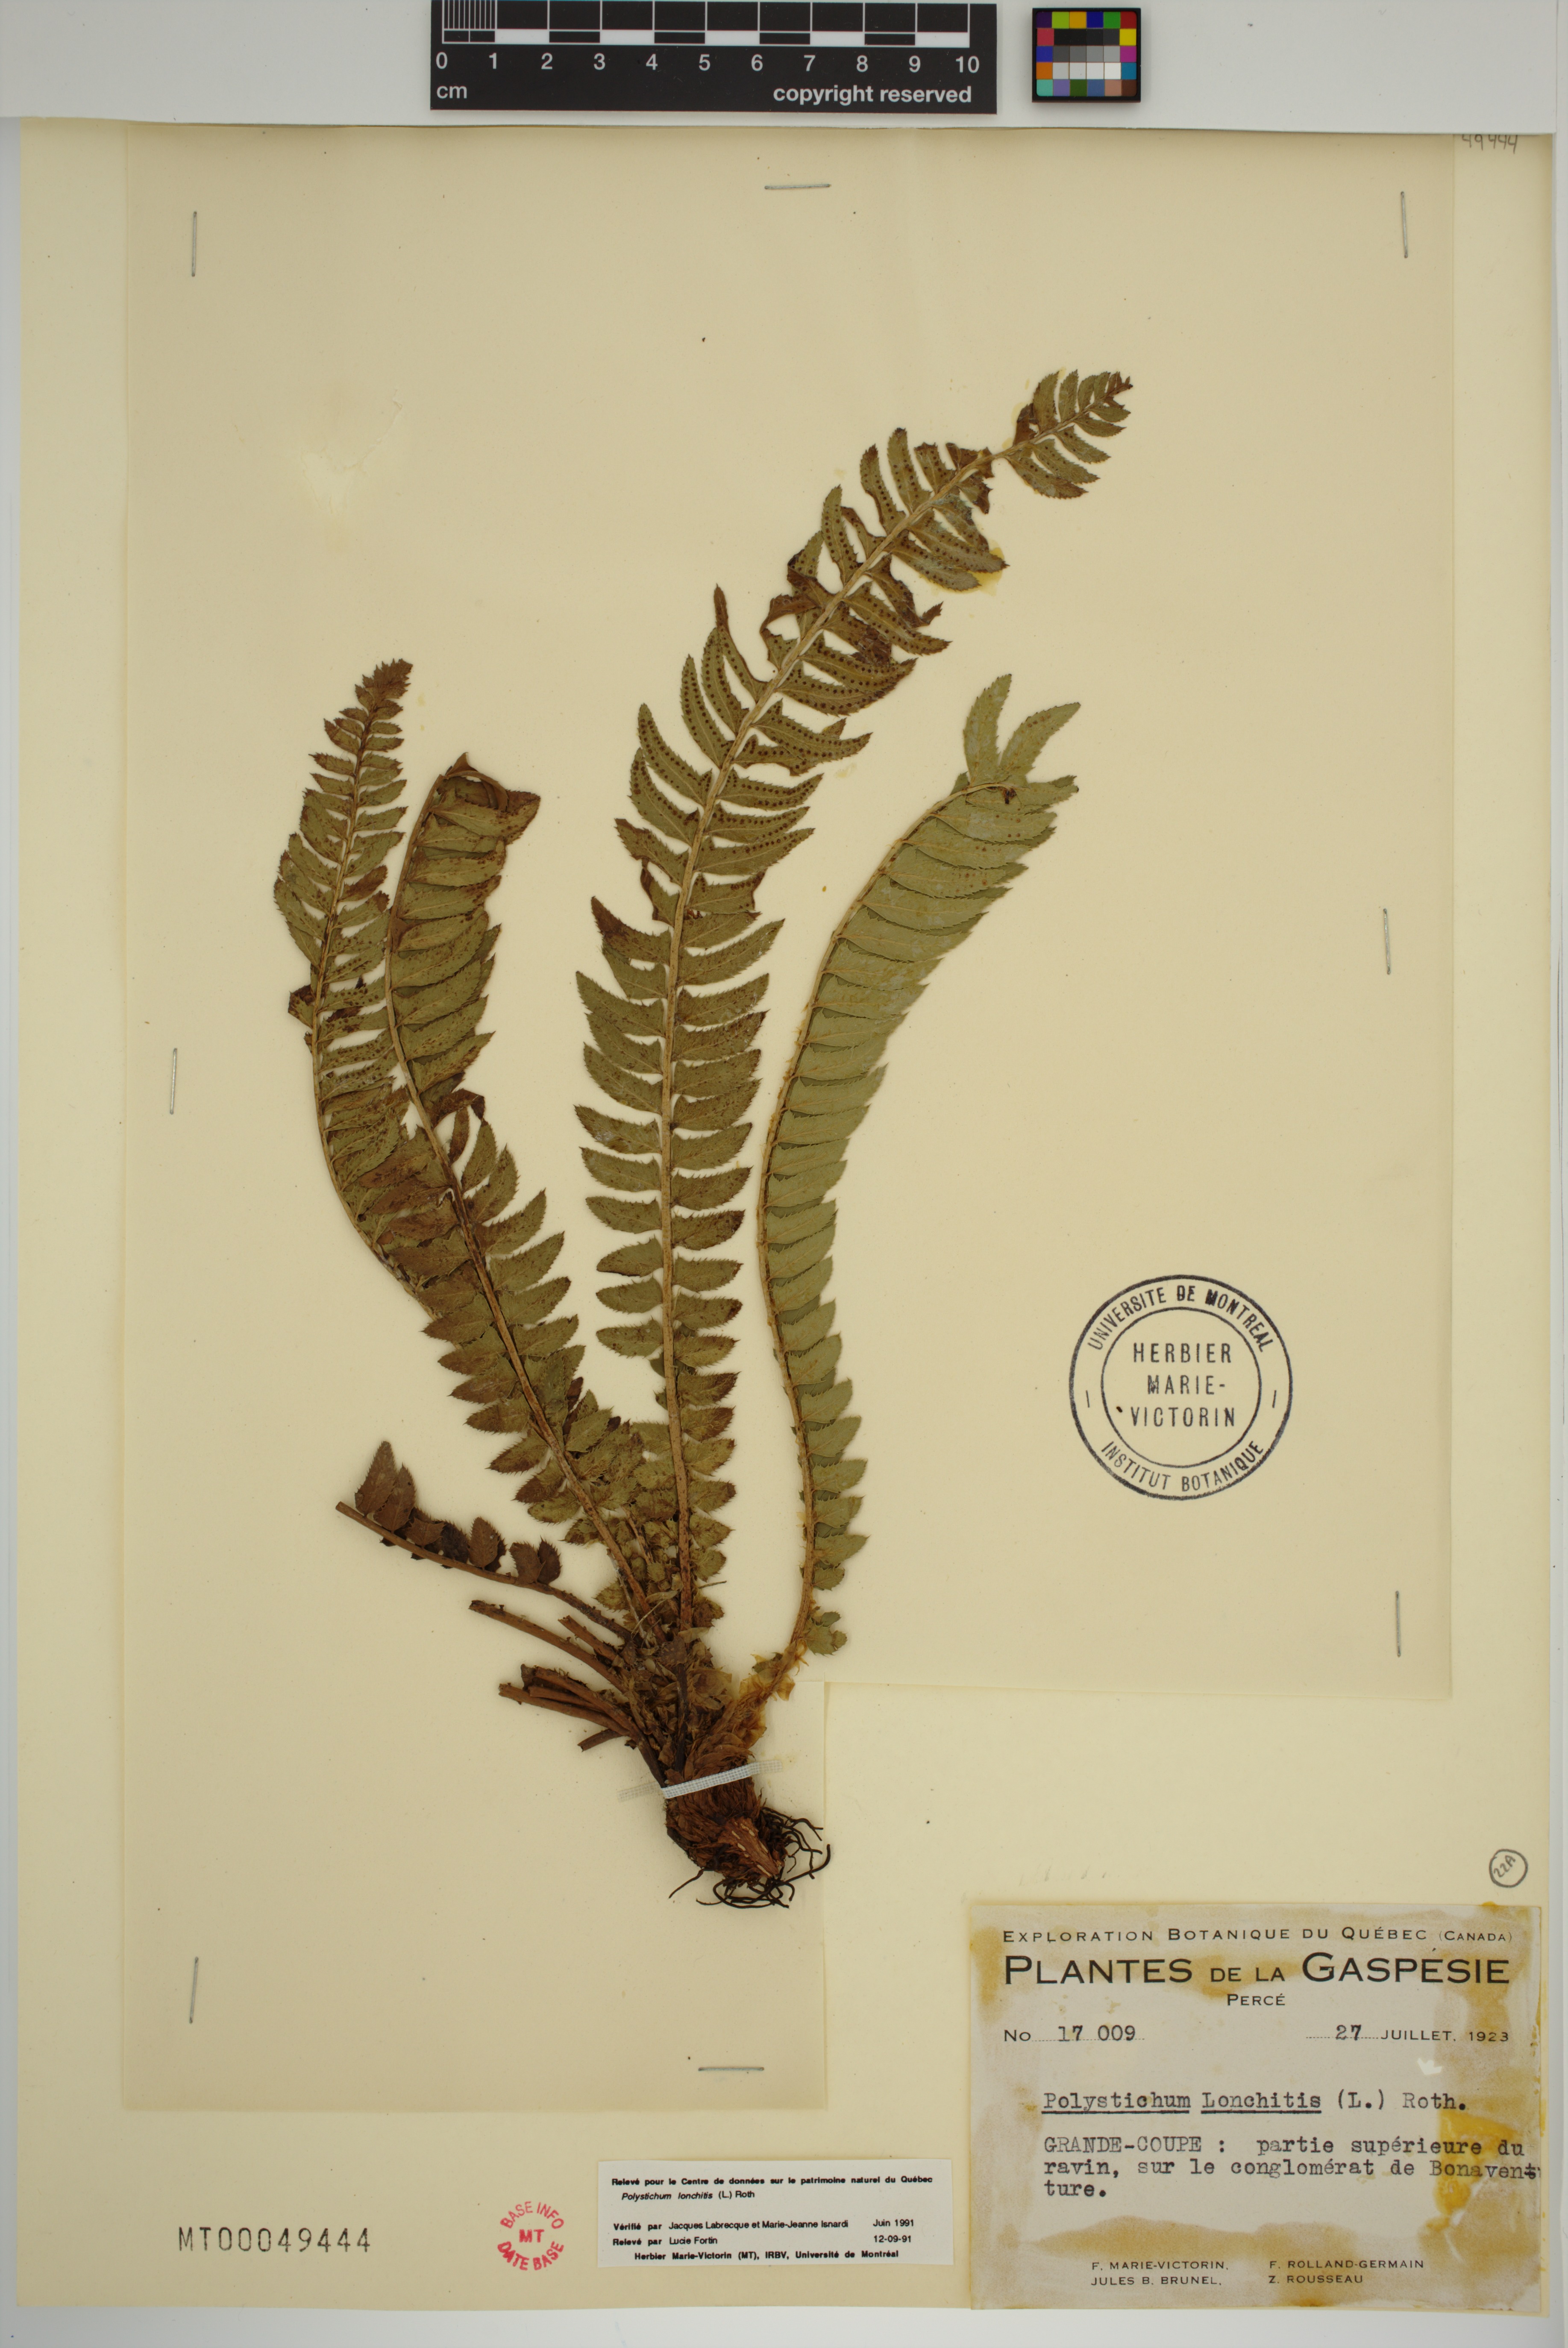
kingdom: Plantae
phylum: Tracheophyta
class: Polypodiopsida
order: Polypodiales
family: Dryopteridaceae
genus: Polystichum
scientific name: Polystichum lonchitis
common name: Holly fern
